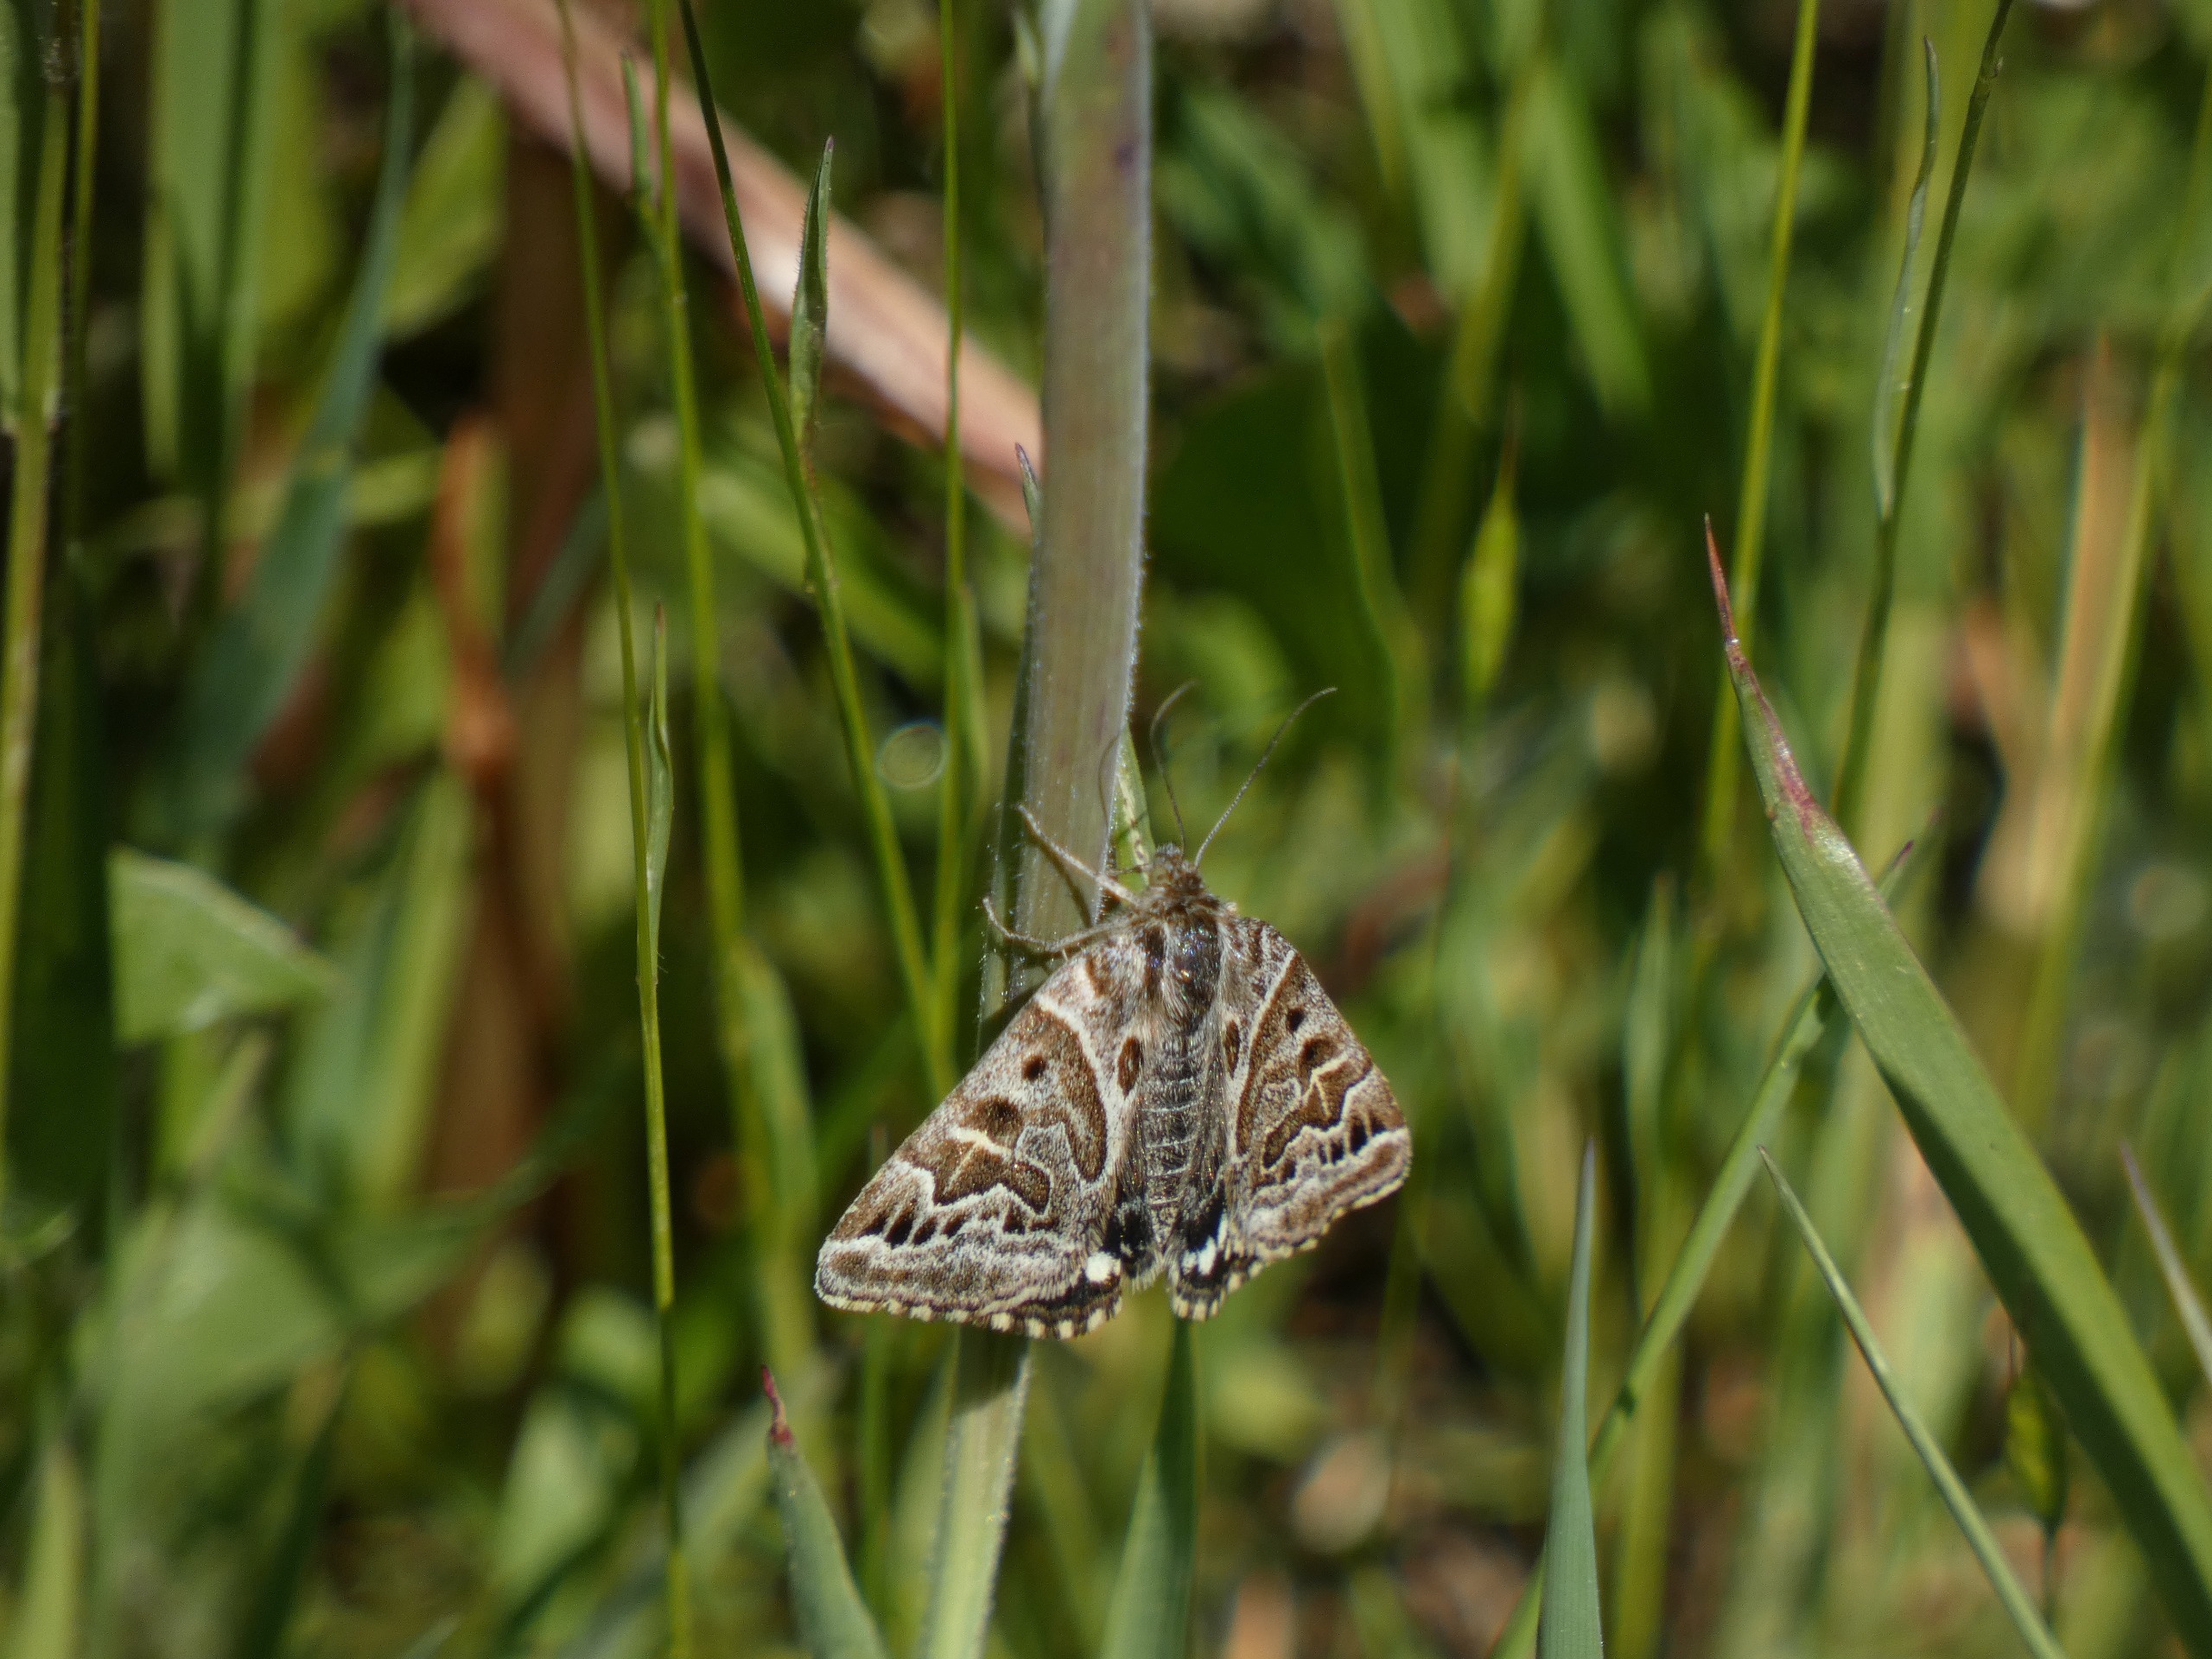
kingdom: Animalia
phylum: Arthropoda
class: Insecta
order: Lepidoptera
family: Erebidae
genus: Callistege
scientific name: Callistege mi
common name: Marmoreret kløverugle
